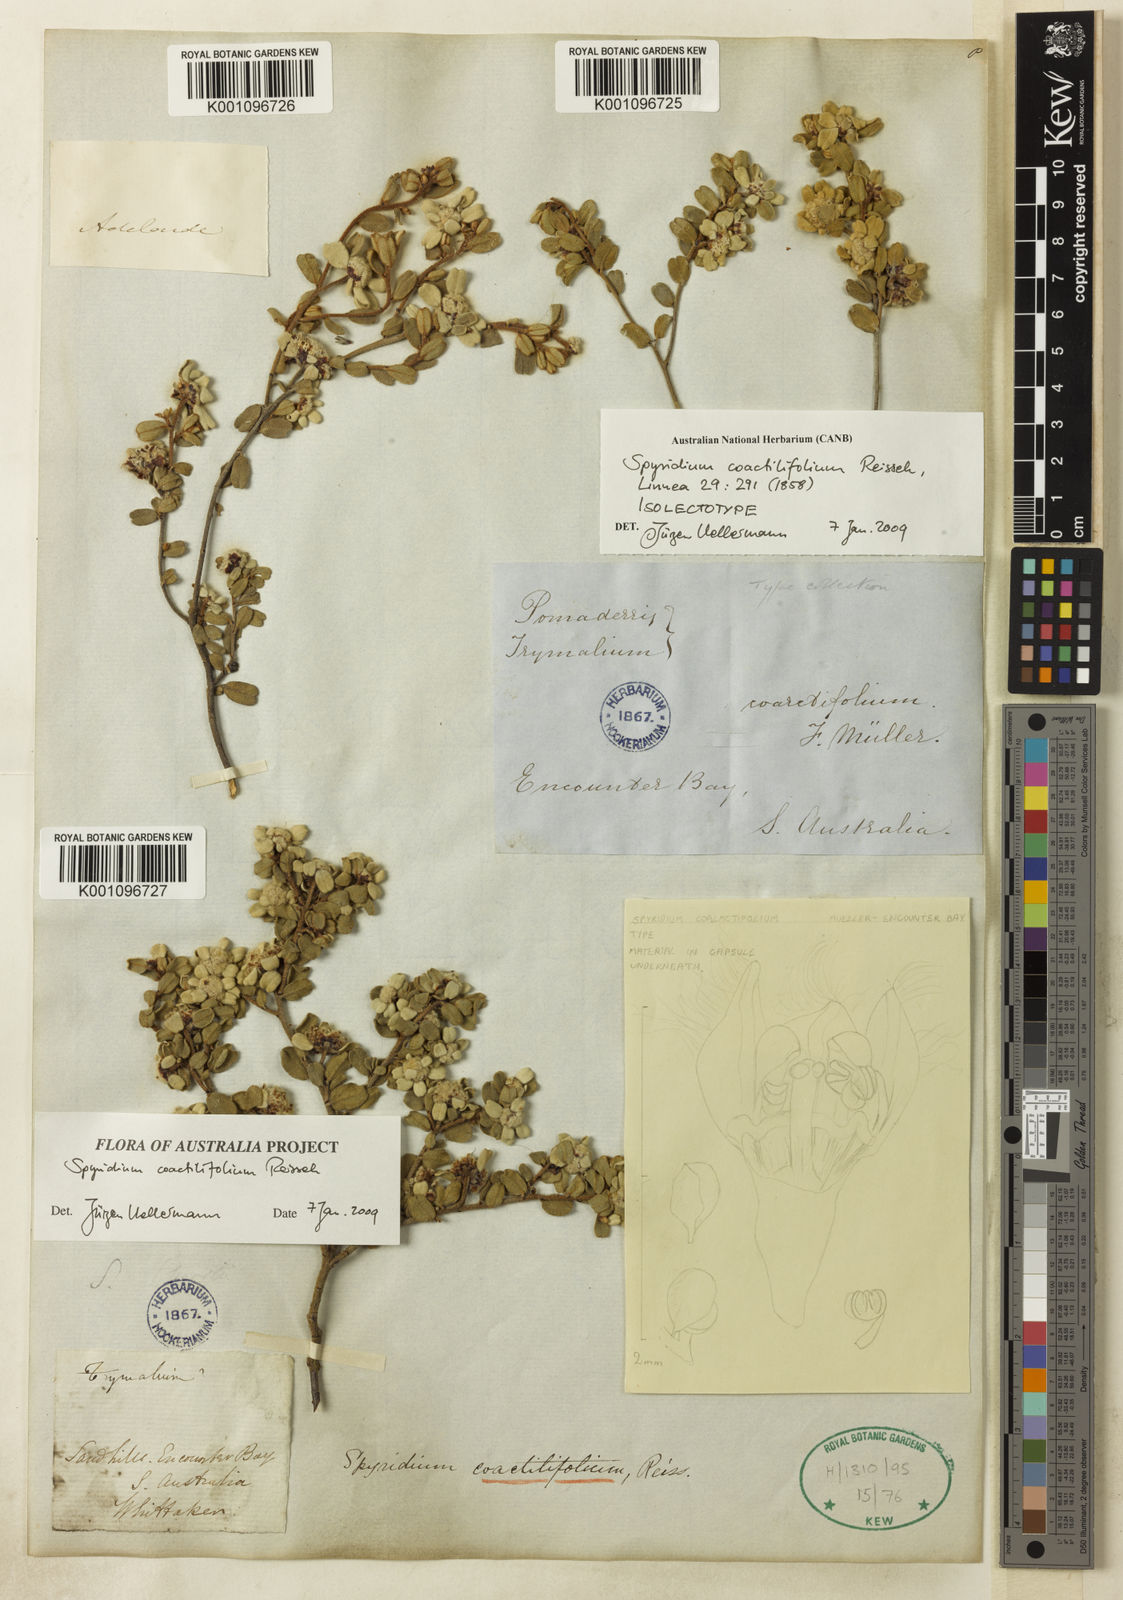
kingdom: Plantae
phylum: Tracheophyta
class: Magnoliopsida
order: Rosales
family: Rhamnaceae
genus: Spyridium
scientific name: Spyridium coactilifolium
